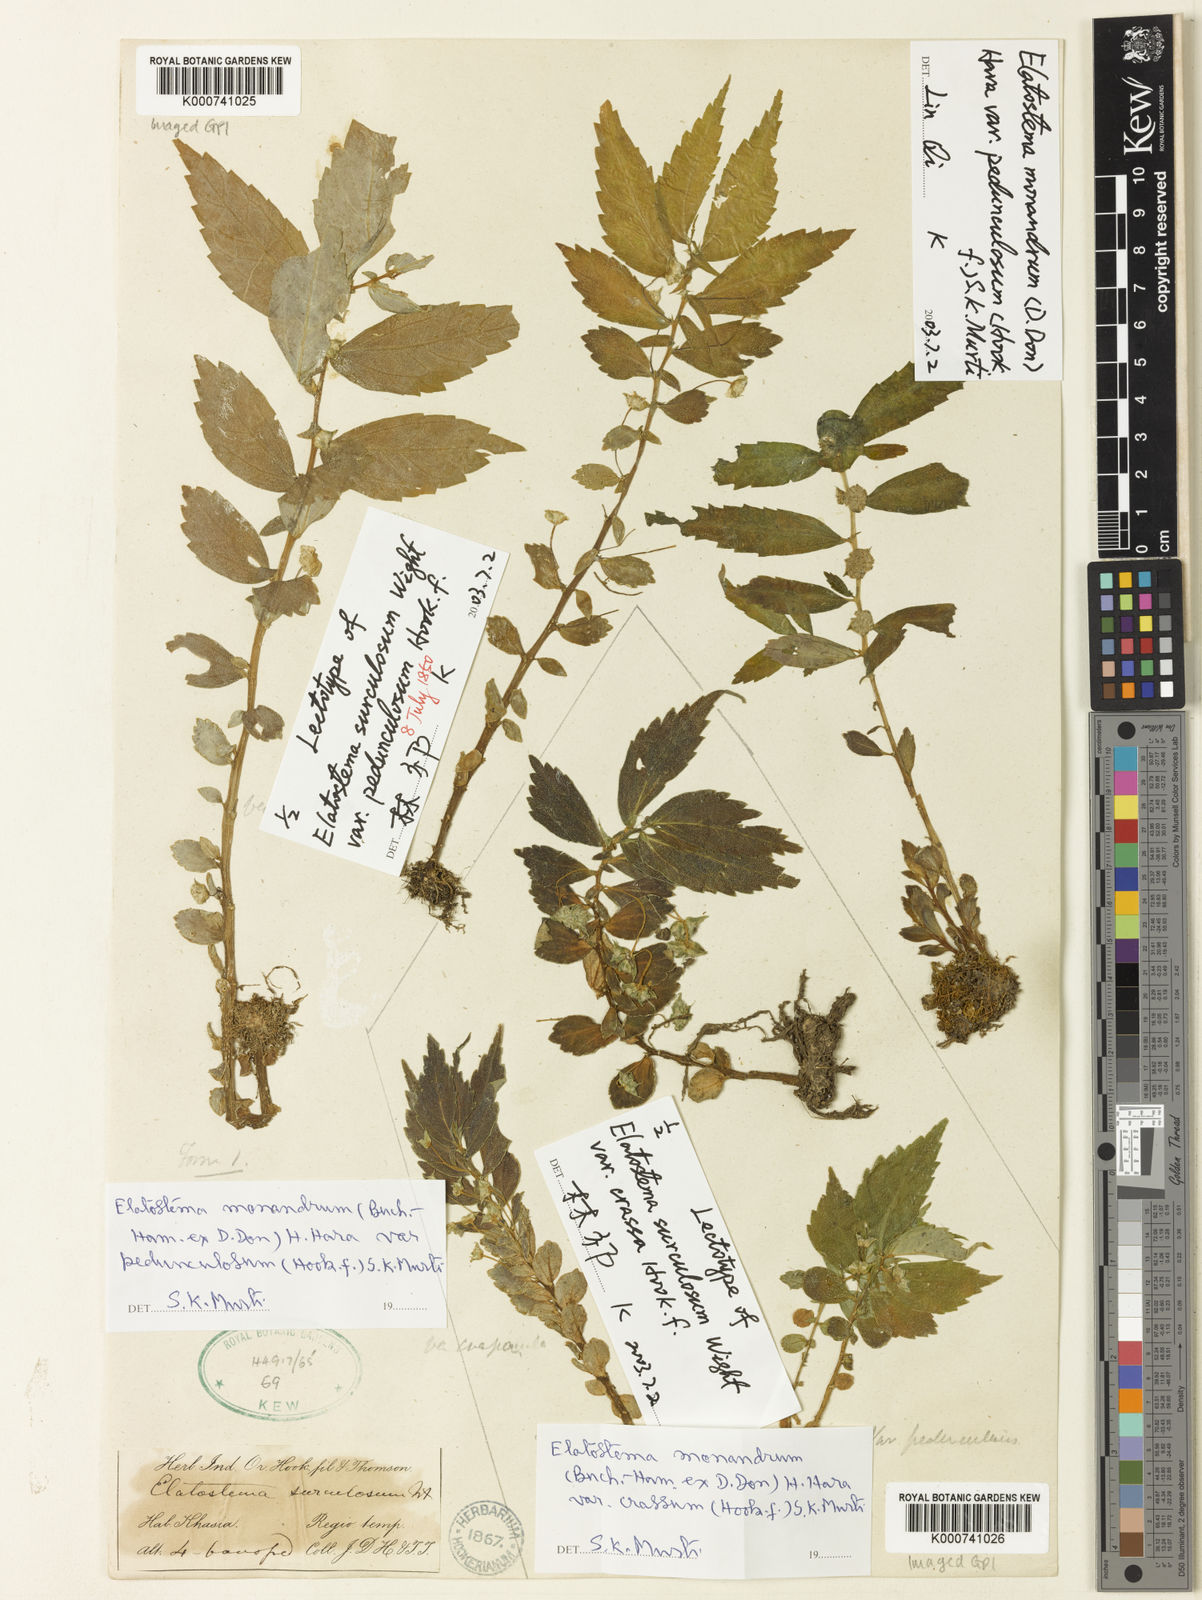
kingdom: Plantae
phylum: Tracheophyta
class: Magnoliopsida
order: Rosales
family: Urticaceae
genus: Elatostema
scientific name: Elatostema monandrum
